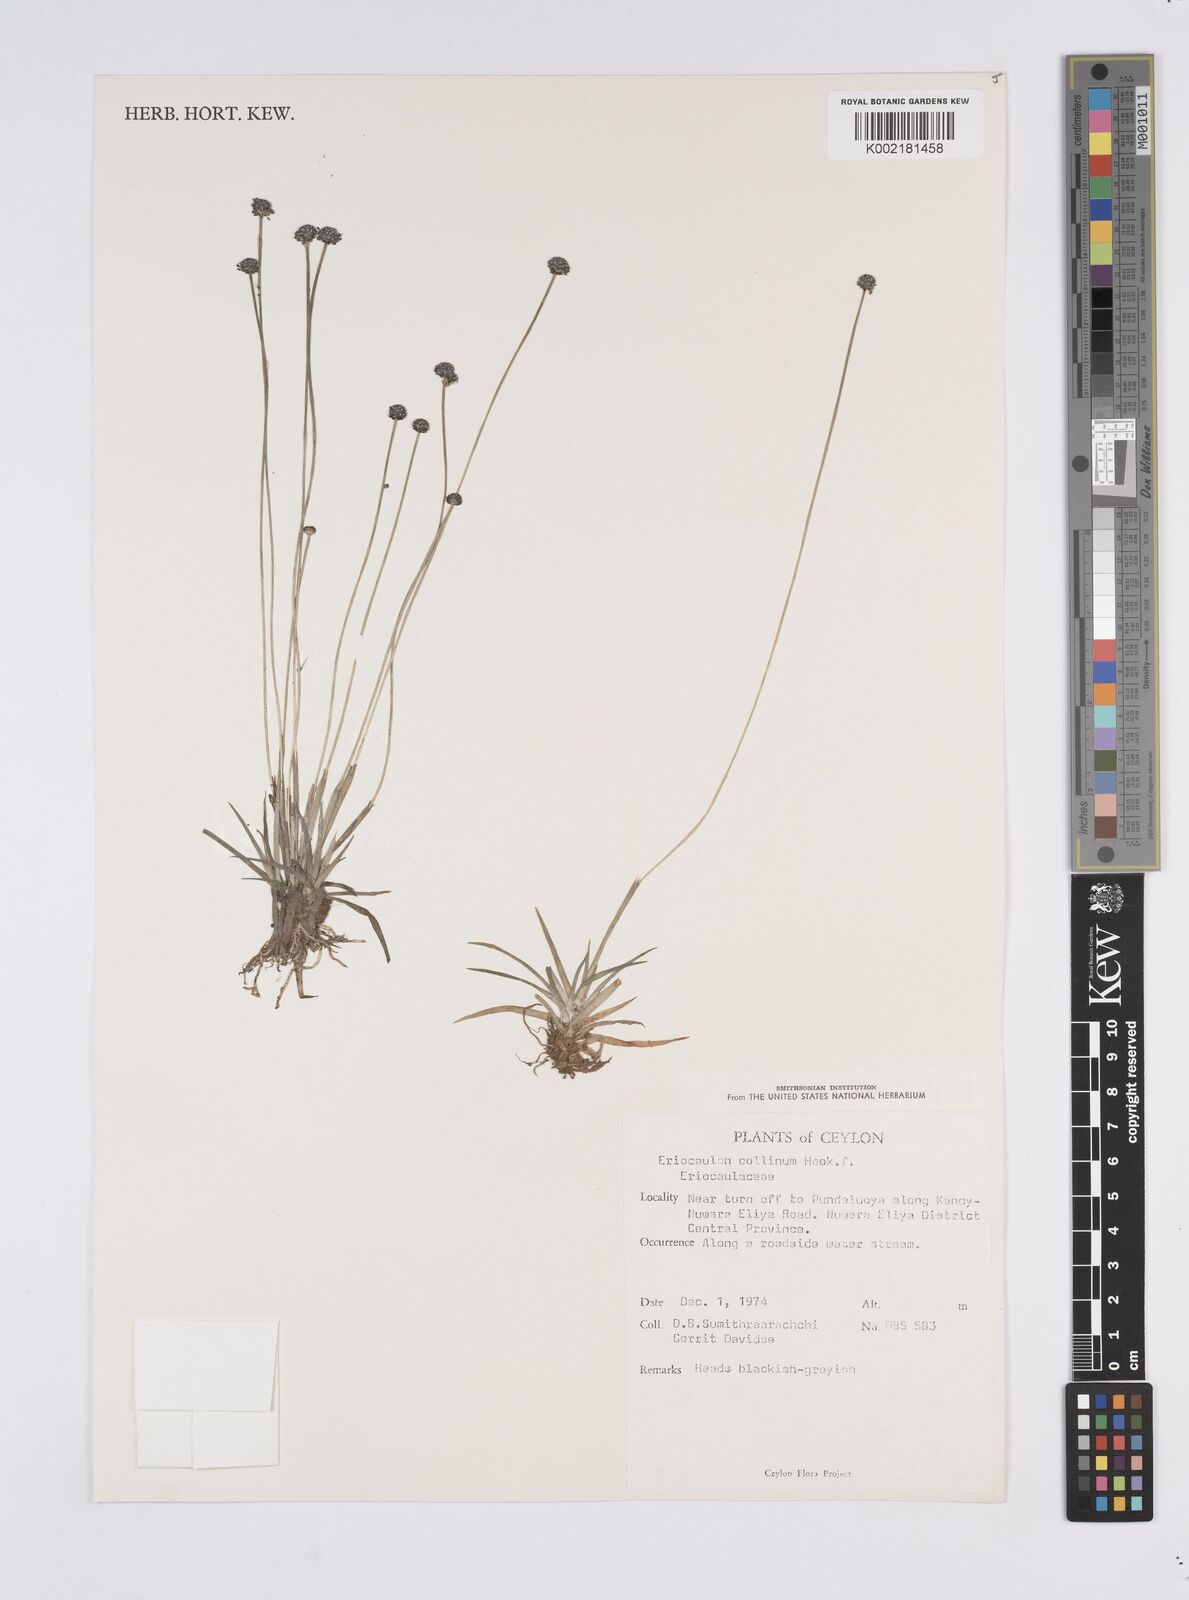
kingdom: Plantae
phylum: Tracheophyta
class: Liliopsida
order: Poales
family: Eriocaulaceae
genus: Eriocaulon
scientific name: Eriocaulon odoratum
